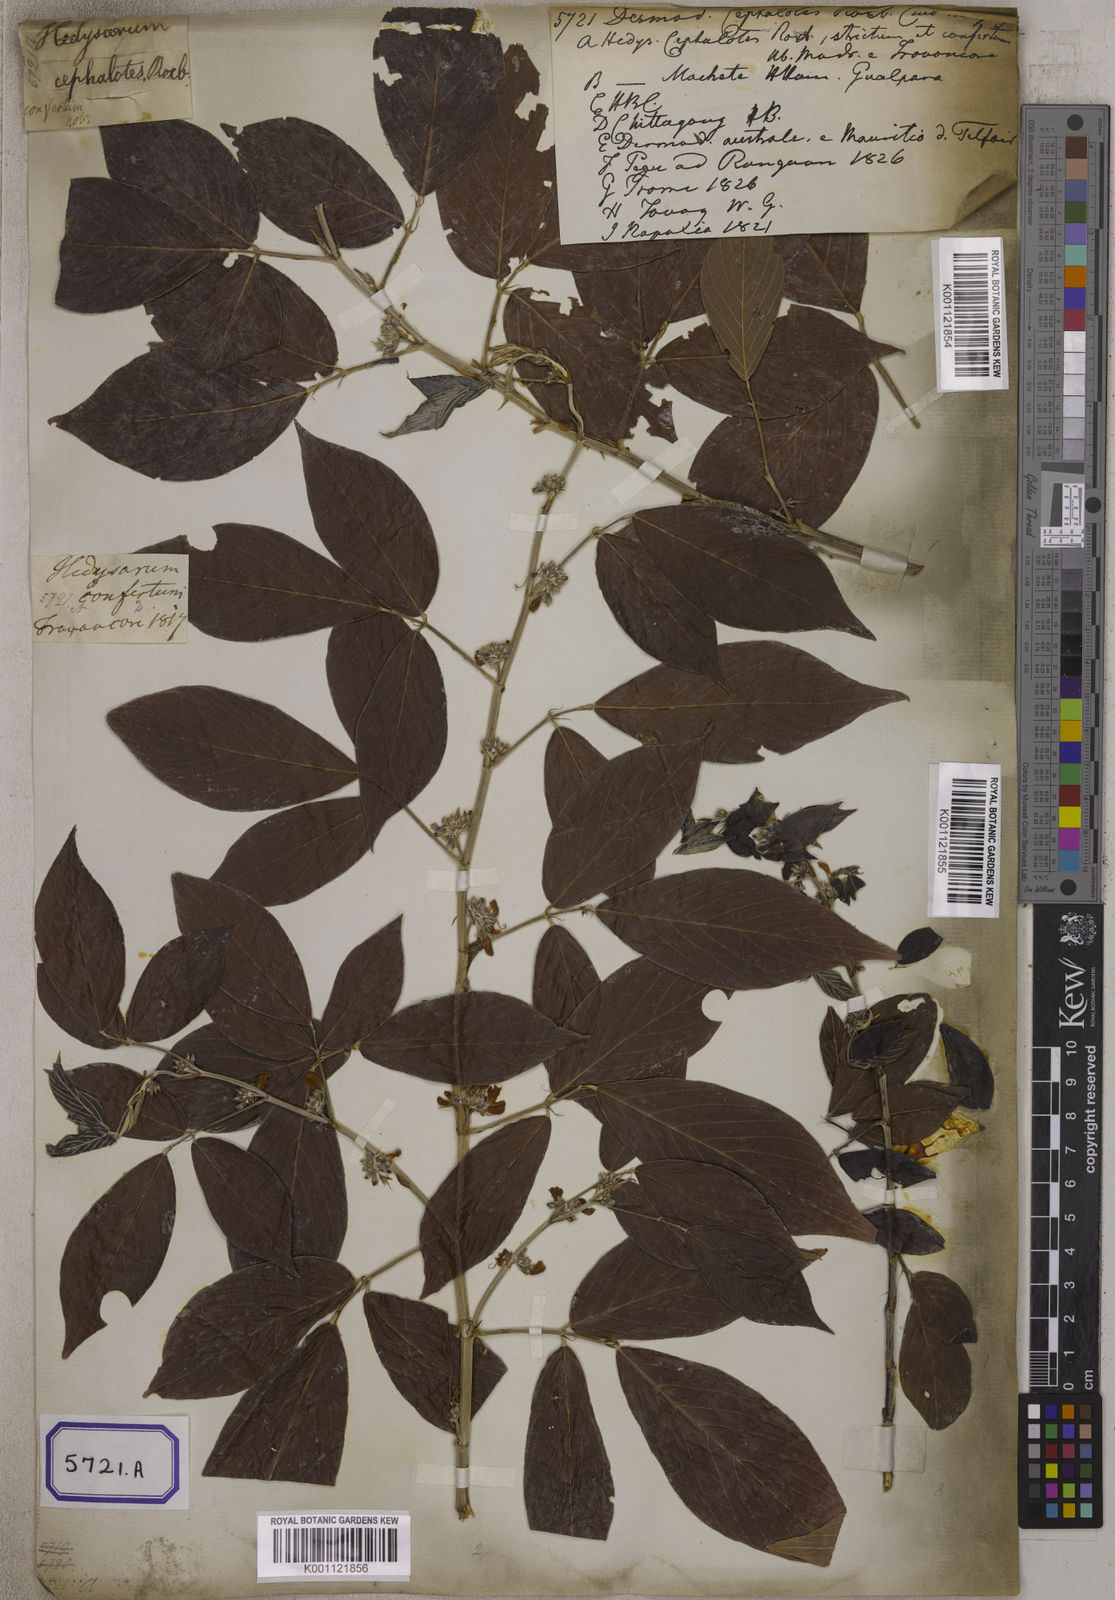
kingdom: Plantae
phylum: Tracheophyta
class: Magnoliopsida
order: Fabales
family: Fabaceae
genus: Desmodium
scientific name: Desmodium
